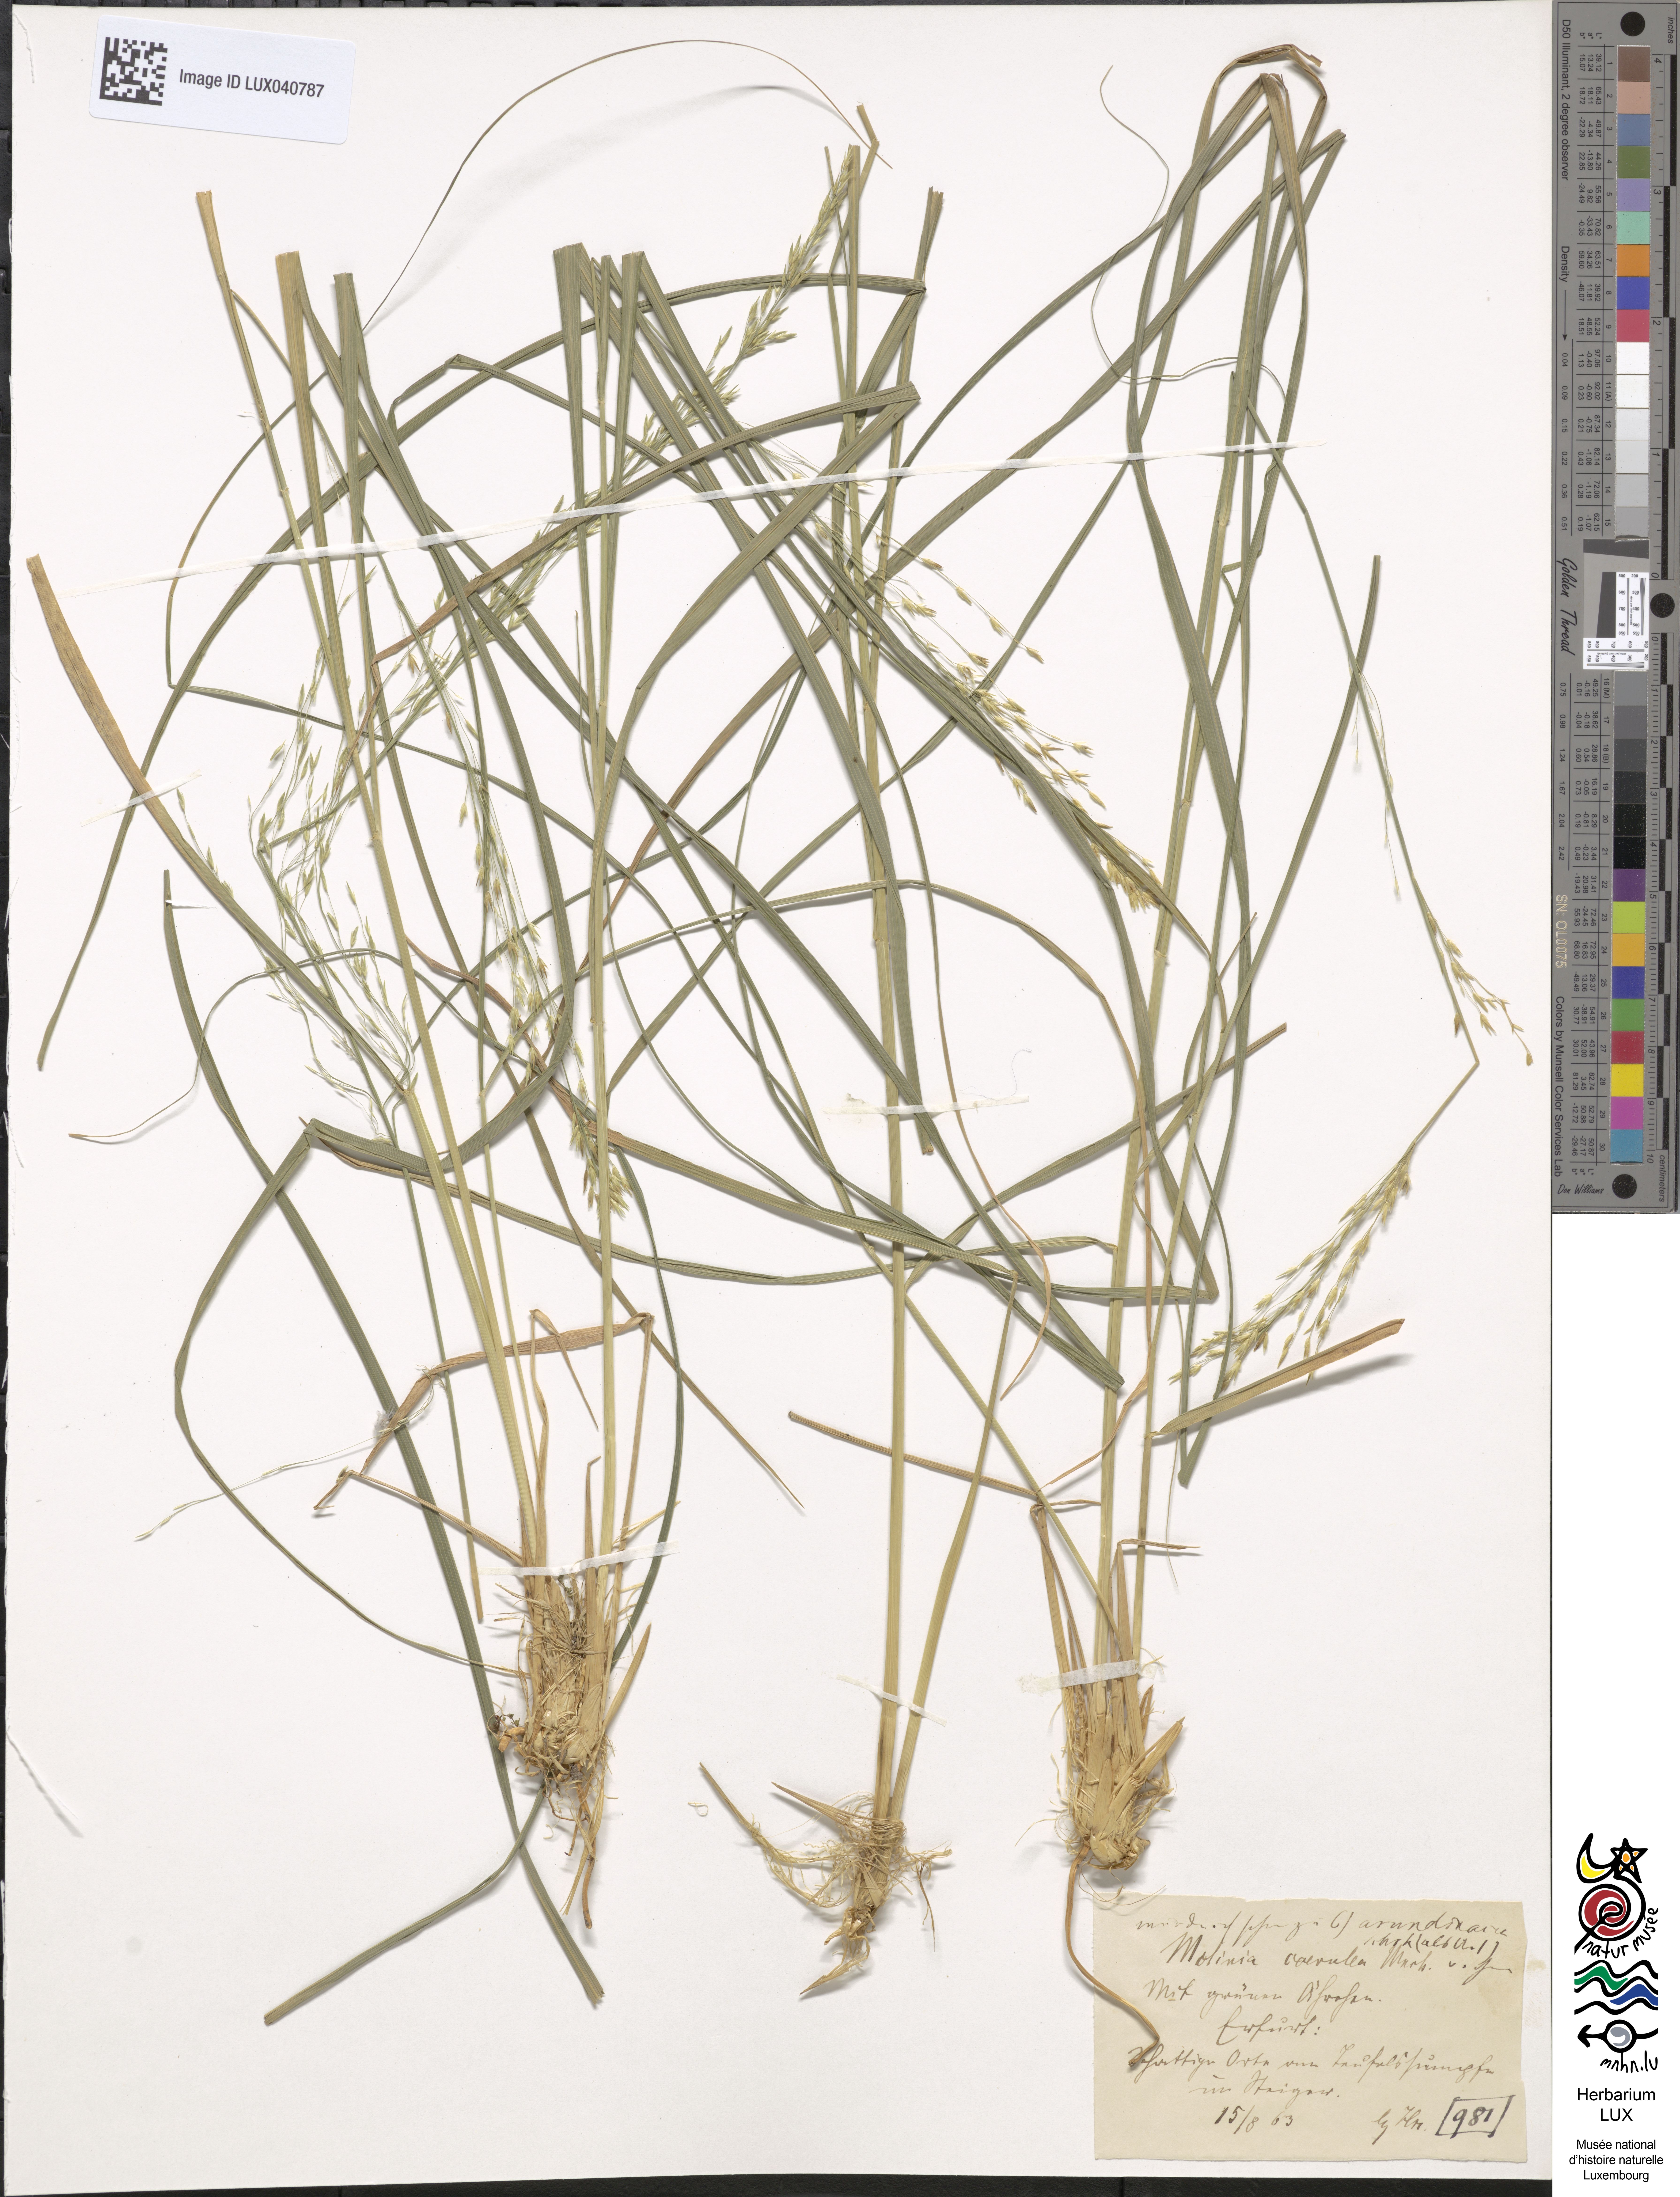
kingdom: Plantae
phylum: Tracheophyta
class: Liliopsida
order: Poales
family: Poaceae
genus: Molinia
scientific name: Molinia caerulea
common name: Purple moor-grass
